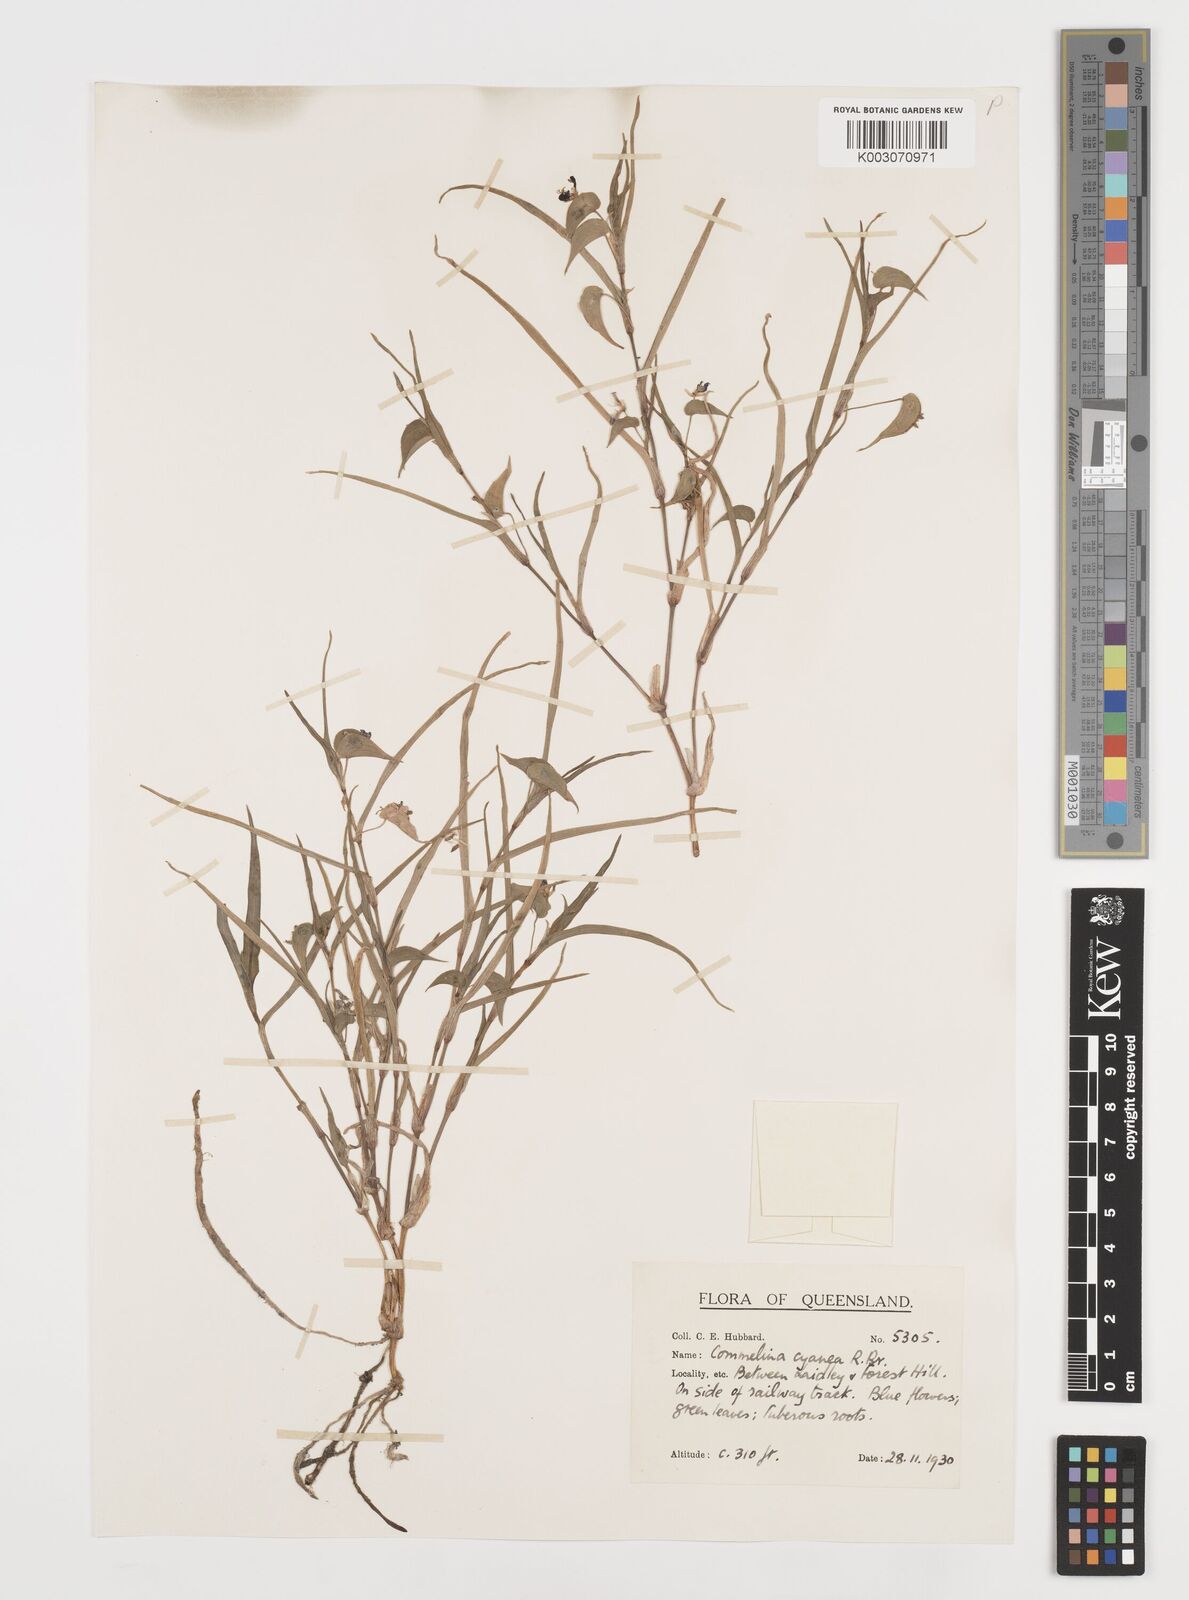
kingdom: Plantae
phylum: Tracheophyta
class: Liliopsida
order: Commelinales
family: Commelinaceae
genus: Commelina
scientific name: Commelina
